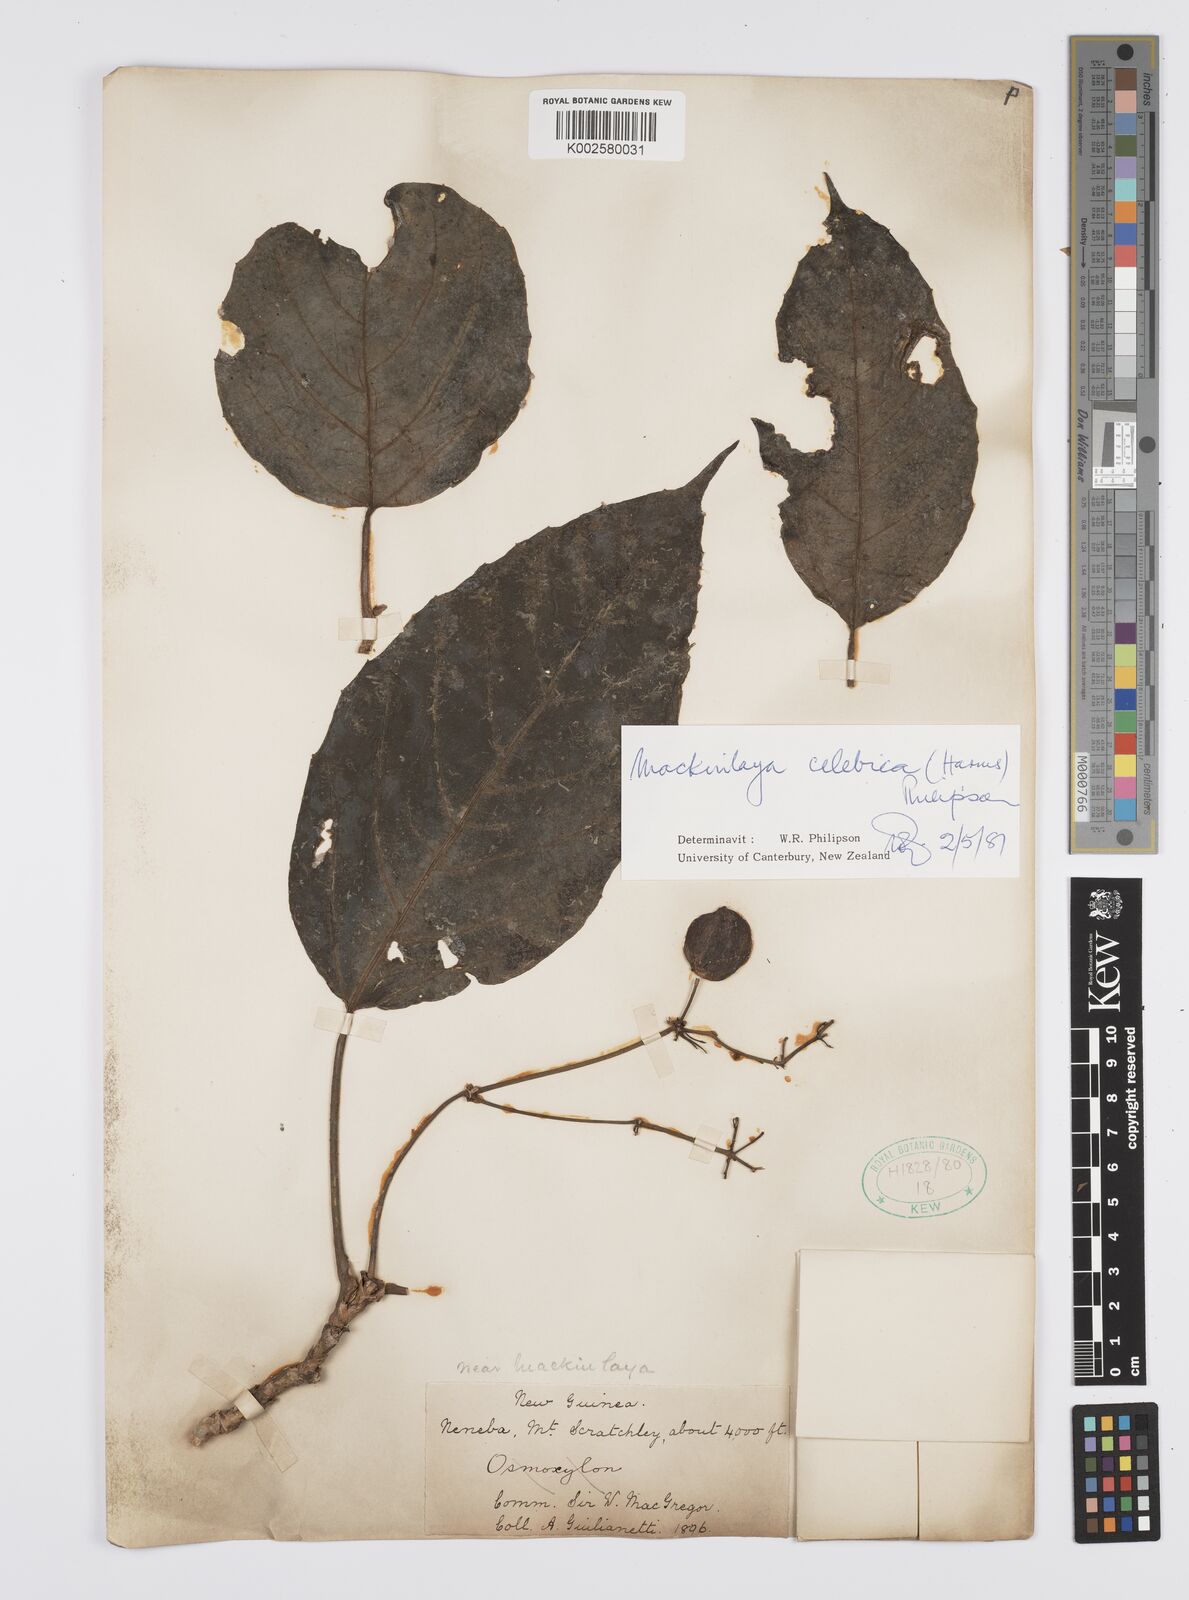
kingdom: Plantae
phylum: Tracheophyta
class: Magnoliopsida
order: Apiales
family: Apiaceae
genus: Mackinlaya
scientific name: Mackinlaya celebica
